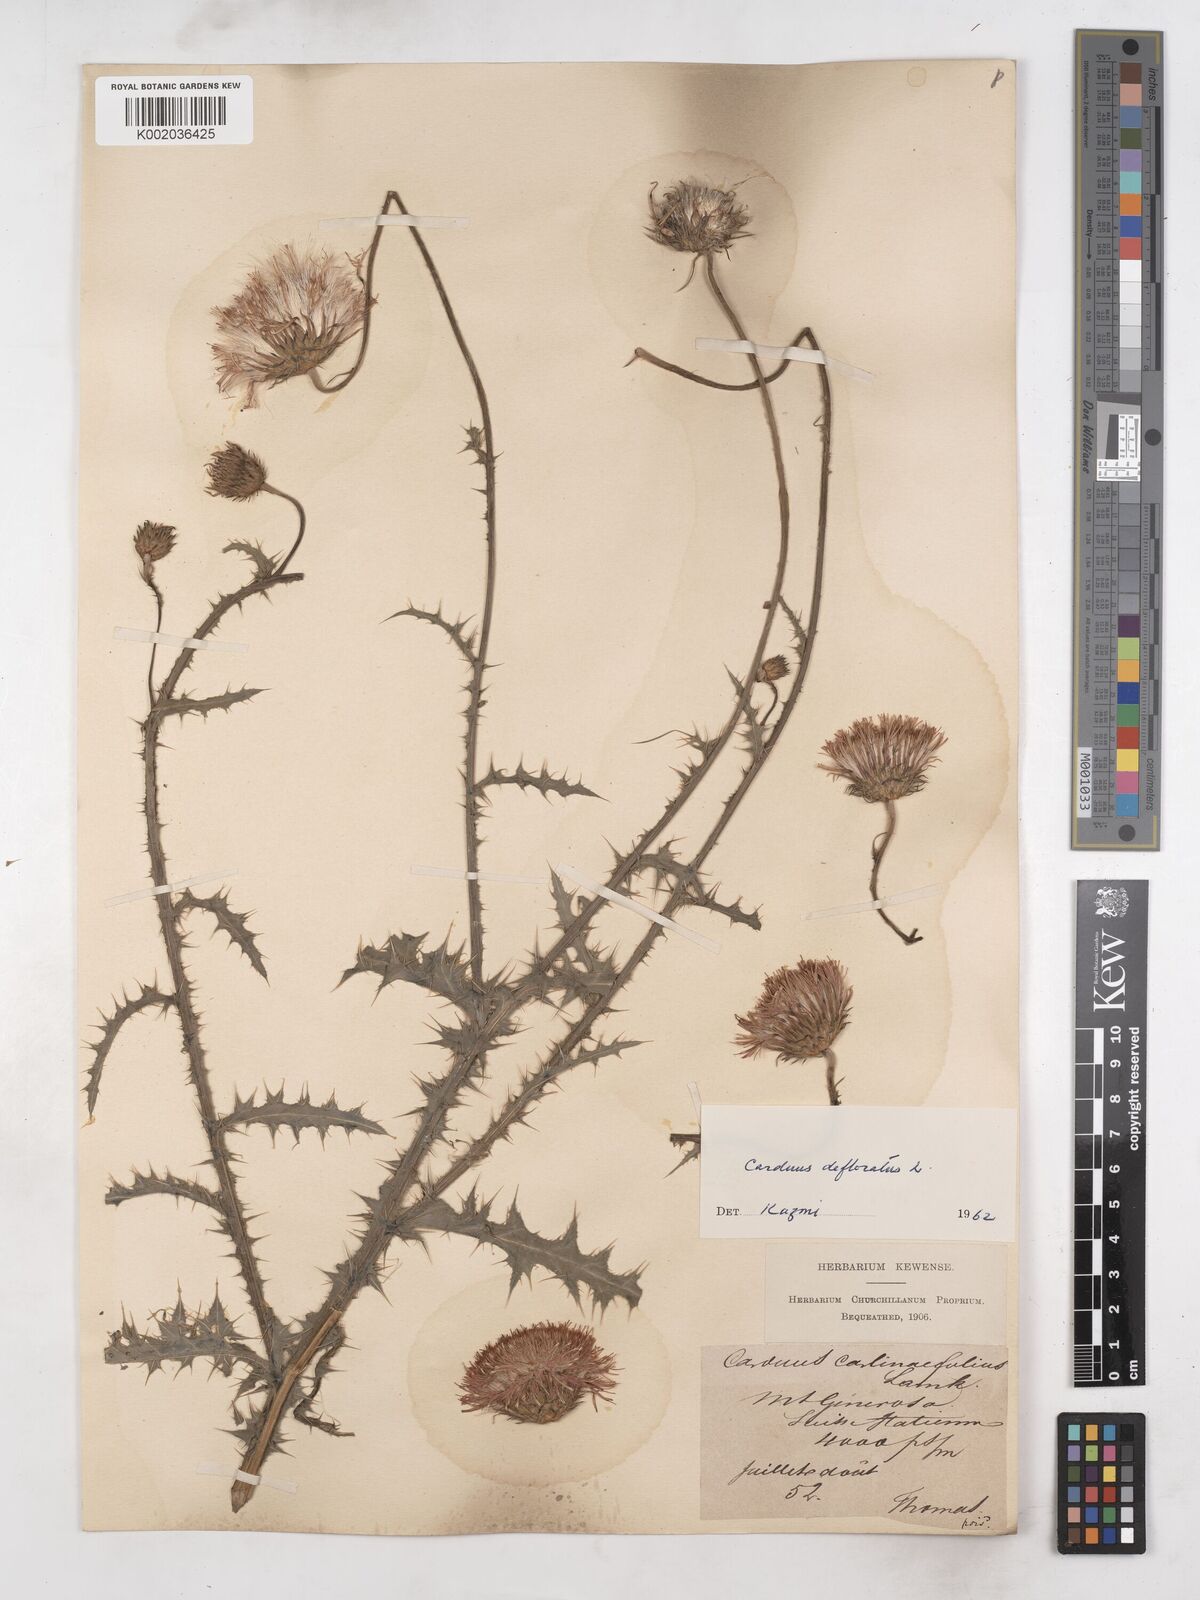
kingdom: Plantae
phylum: Tracheophyta
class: Magnoliopsida
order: Asterales
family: Asteraceae
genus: Carduus
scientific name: Carduus carlinifolius
